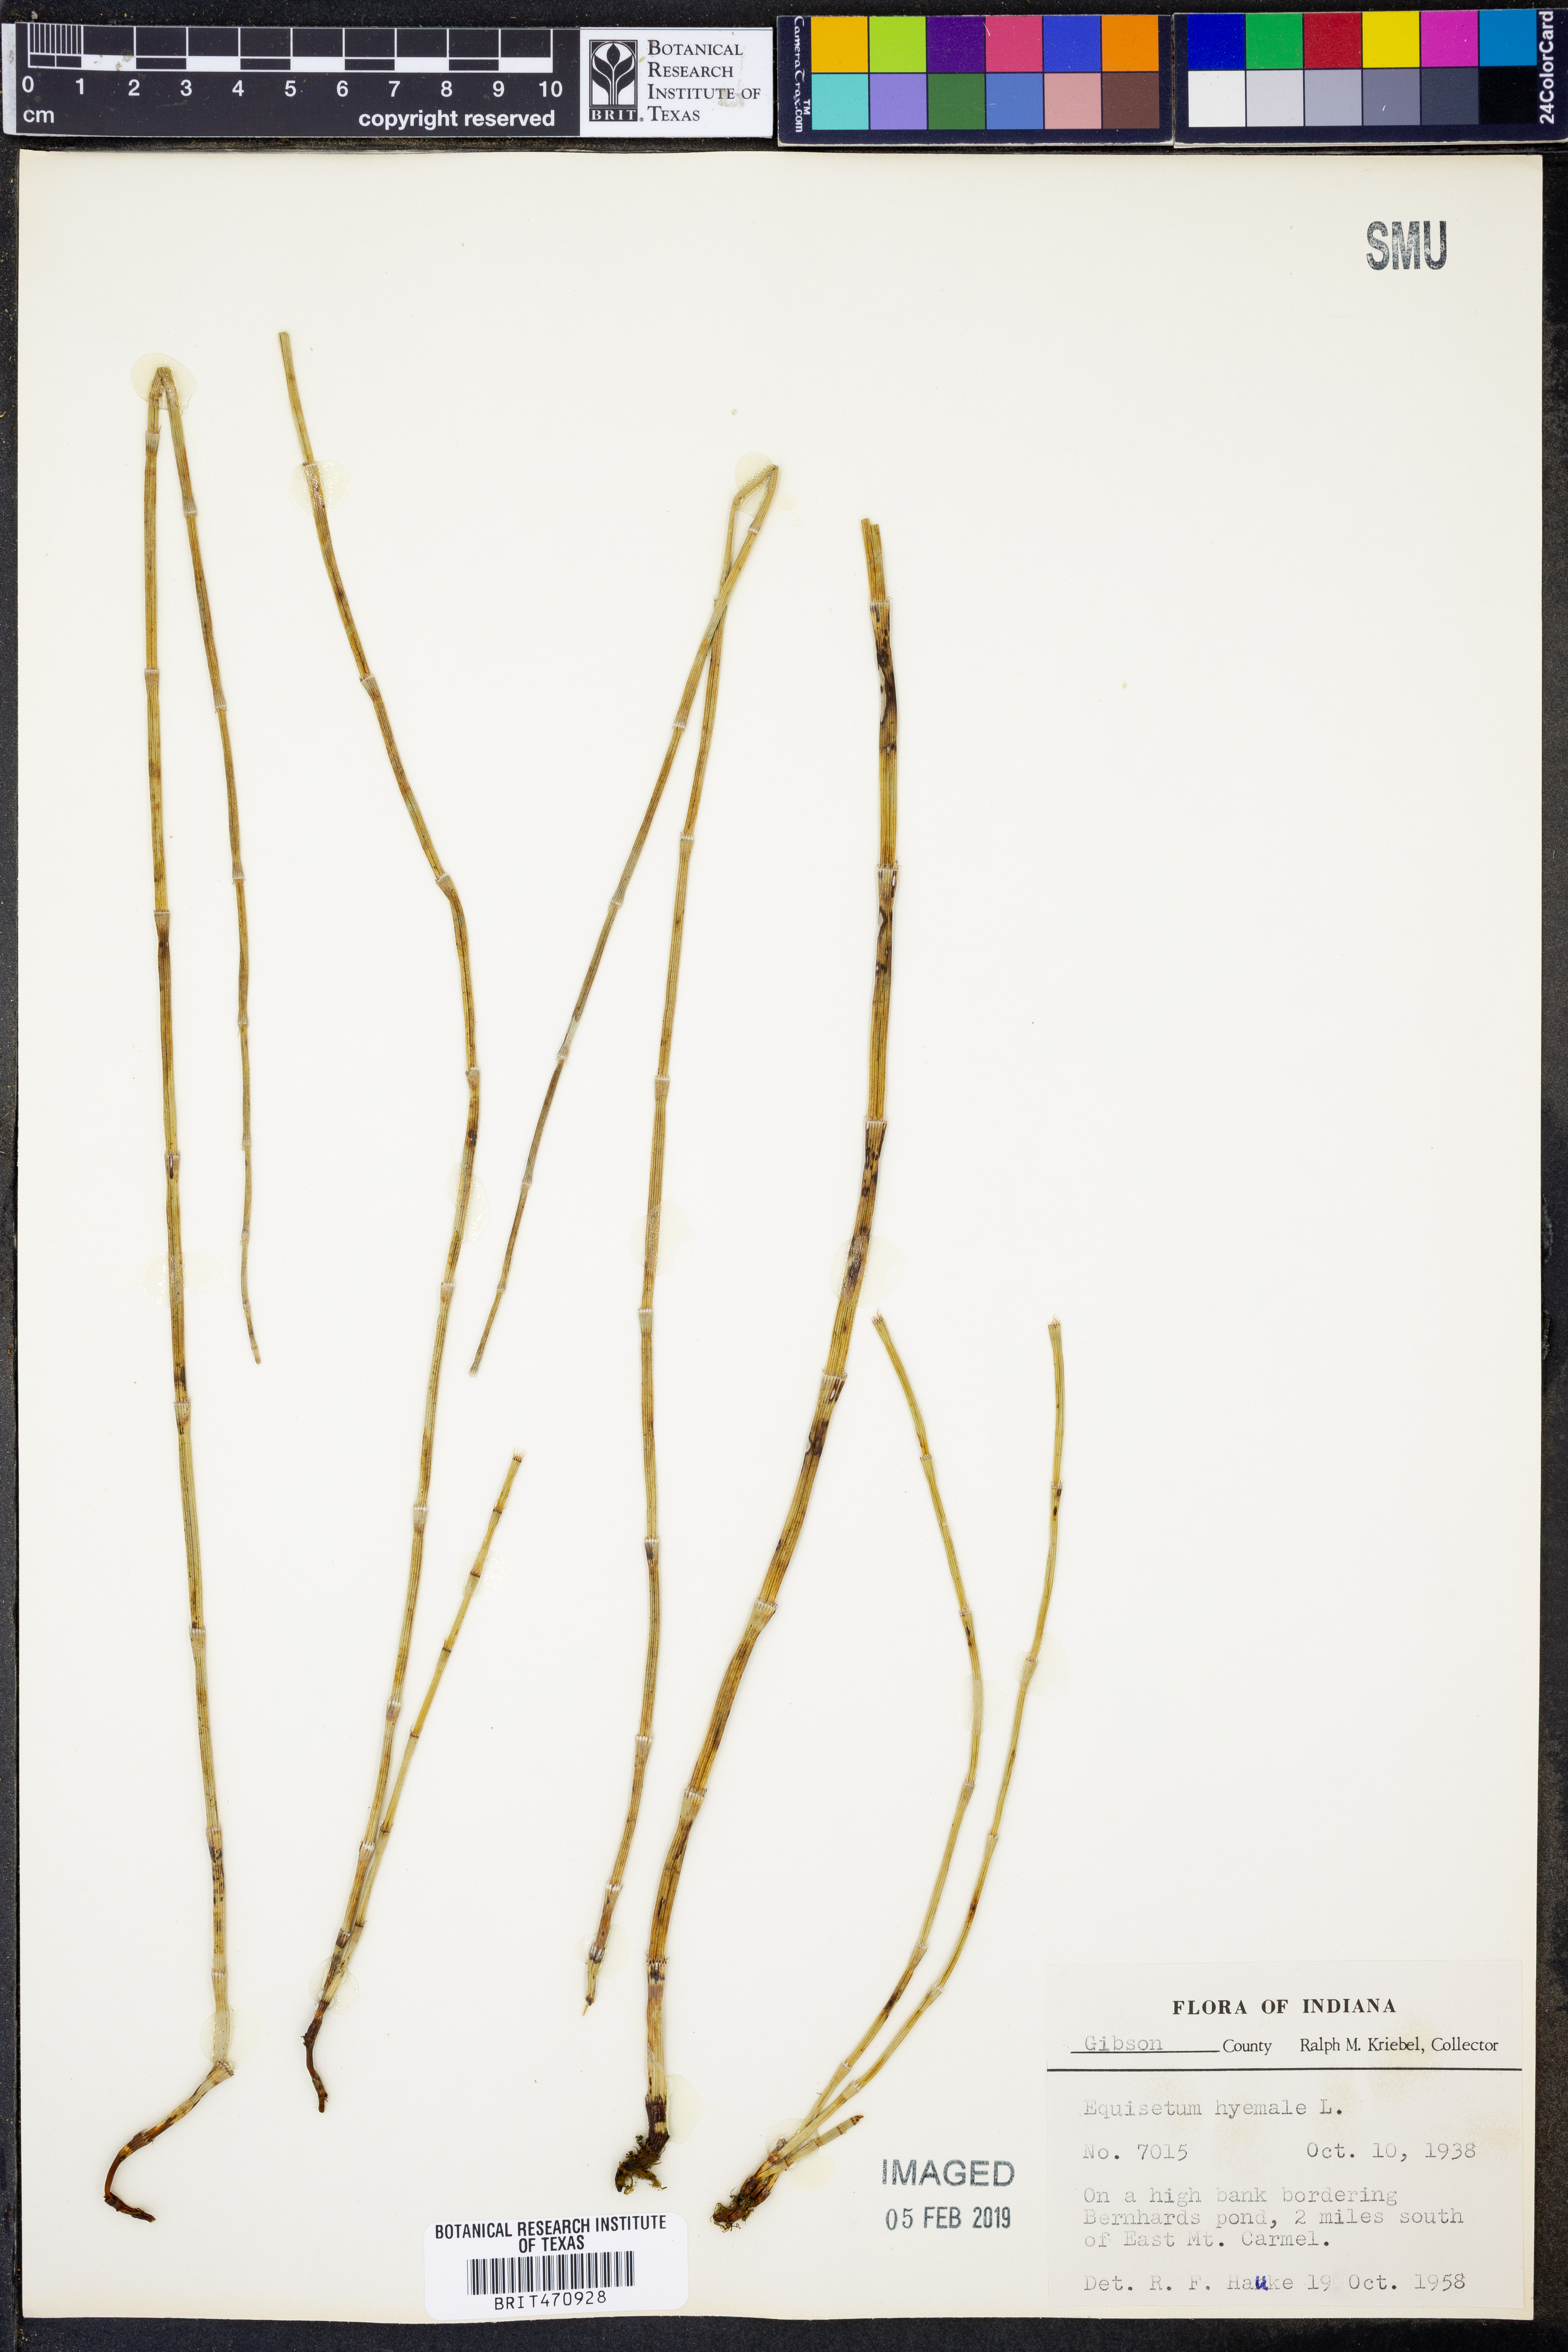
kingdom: Plantae
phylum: Tracheophyta
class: Polypodiopsida
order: Equisetales
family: Equisetaceae
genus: Equisetum
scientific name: Equisetum hyemale
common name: Rough horsetail
